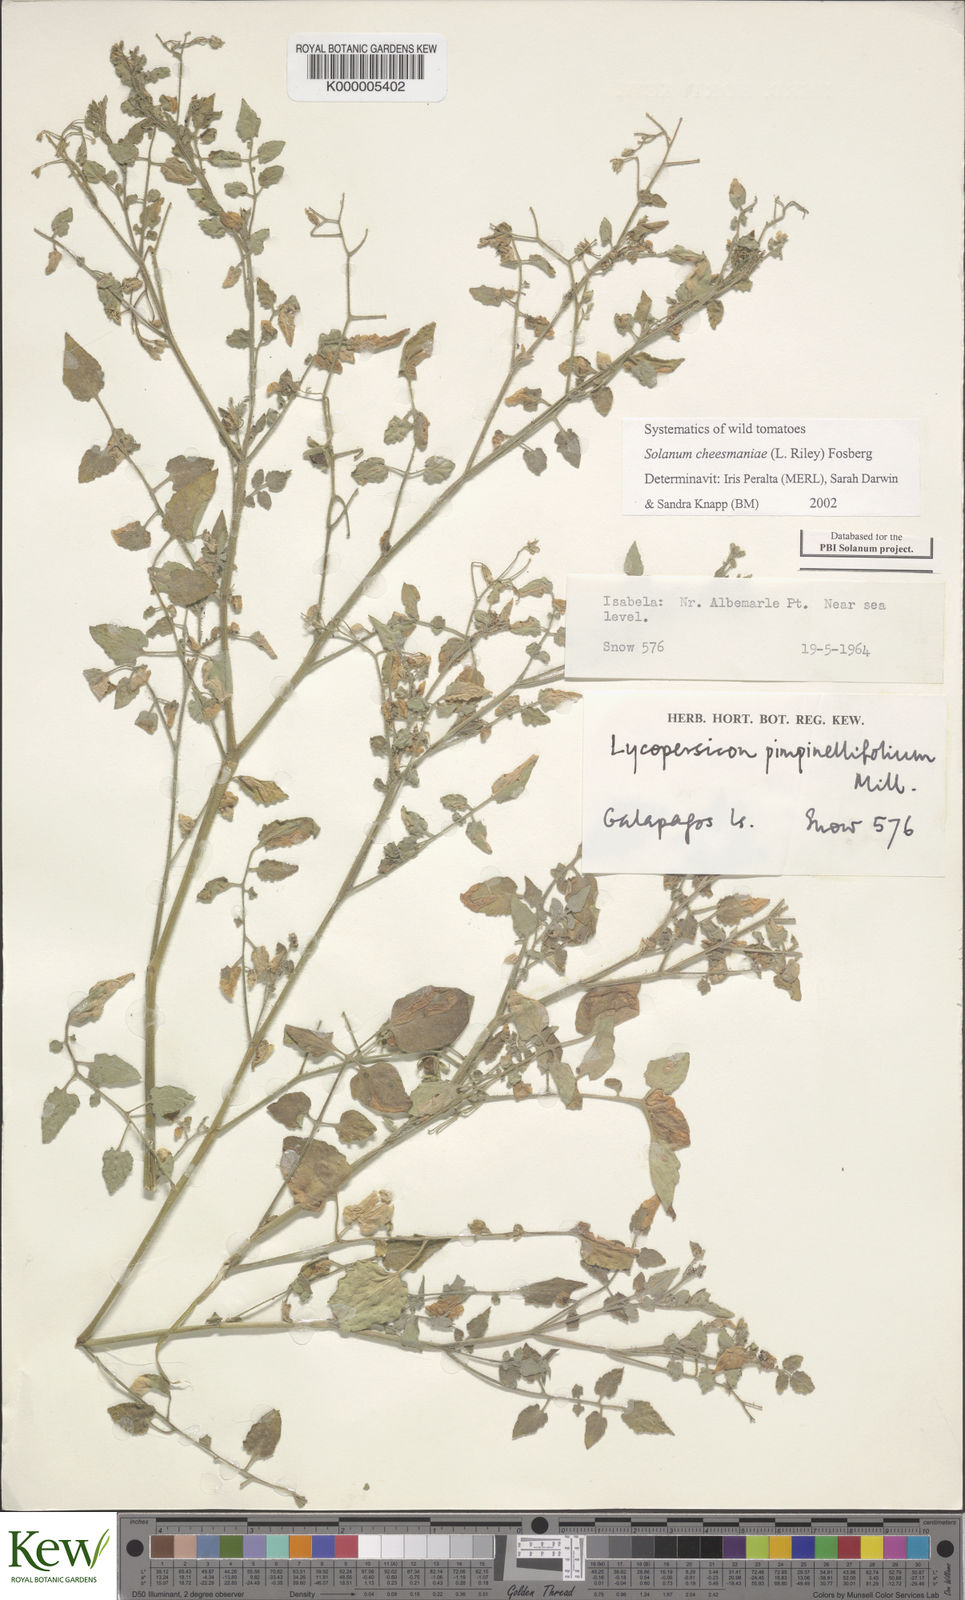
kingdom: Plantae
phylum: Tracheophyta
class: Magnoliopsida
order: Solanales
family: Solanaceae
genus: Solanum
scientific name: Solanum cheesmaniae
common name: Galapagos tomato
